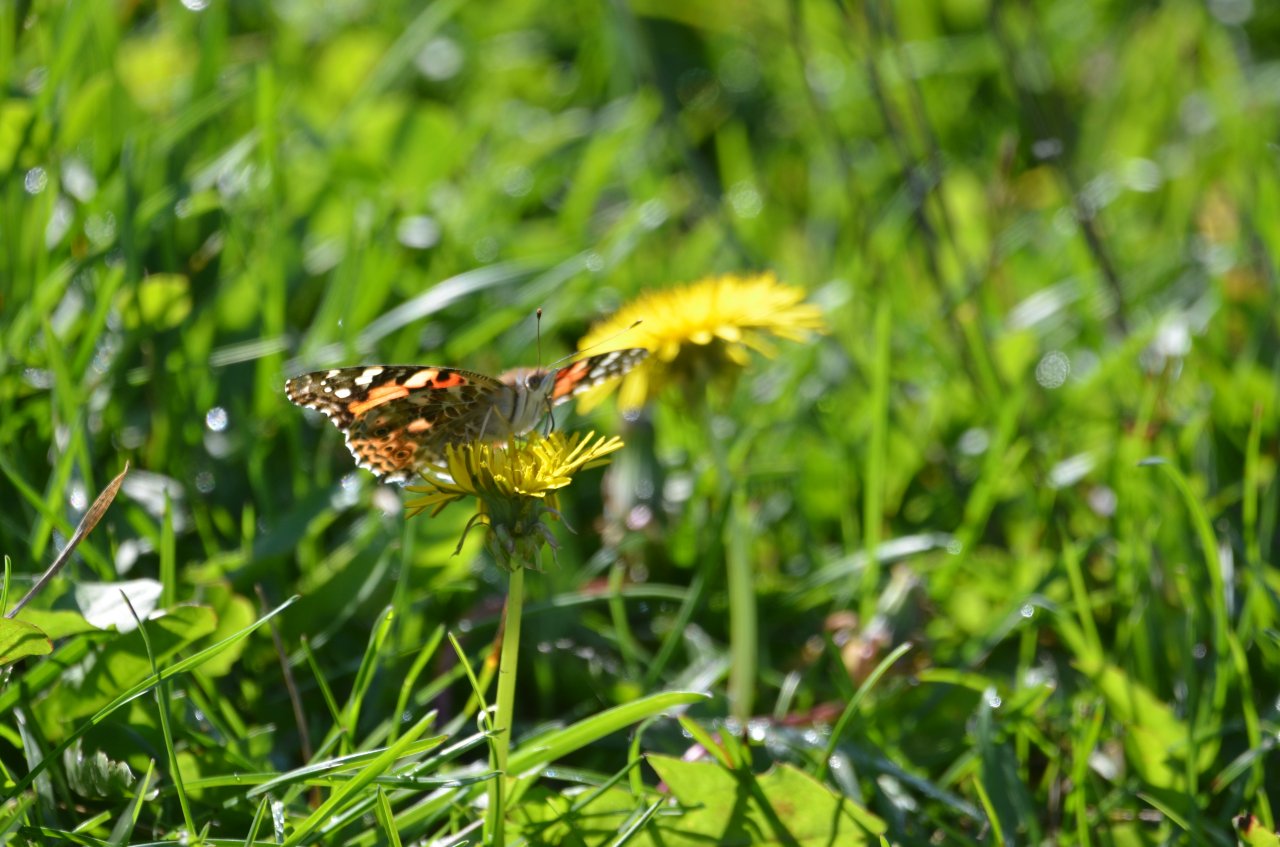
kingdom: Animalia
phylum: Arthropoda
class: Insecta
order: Lepidoptera
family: Nymphalidae
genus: Vanessa
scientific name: Vanessa cardui
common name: Painted Lady
